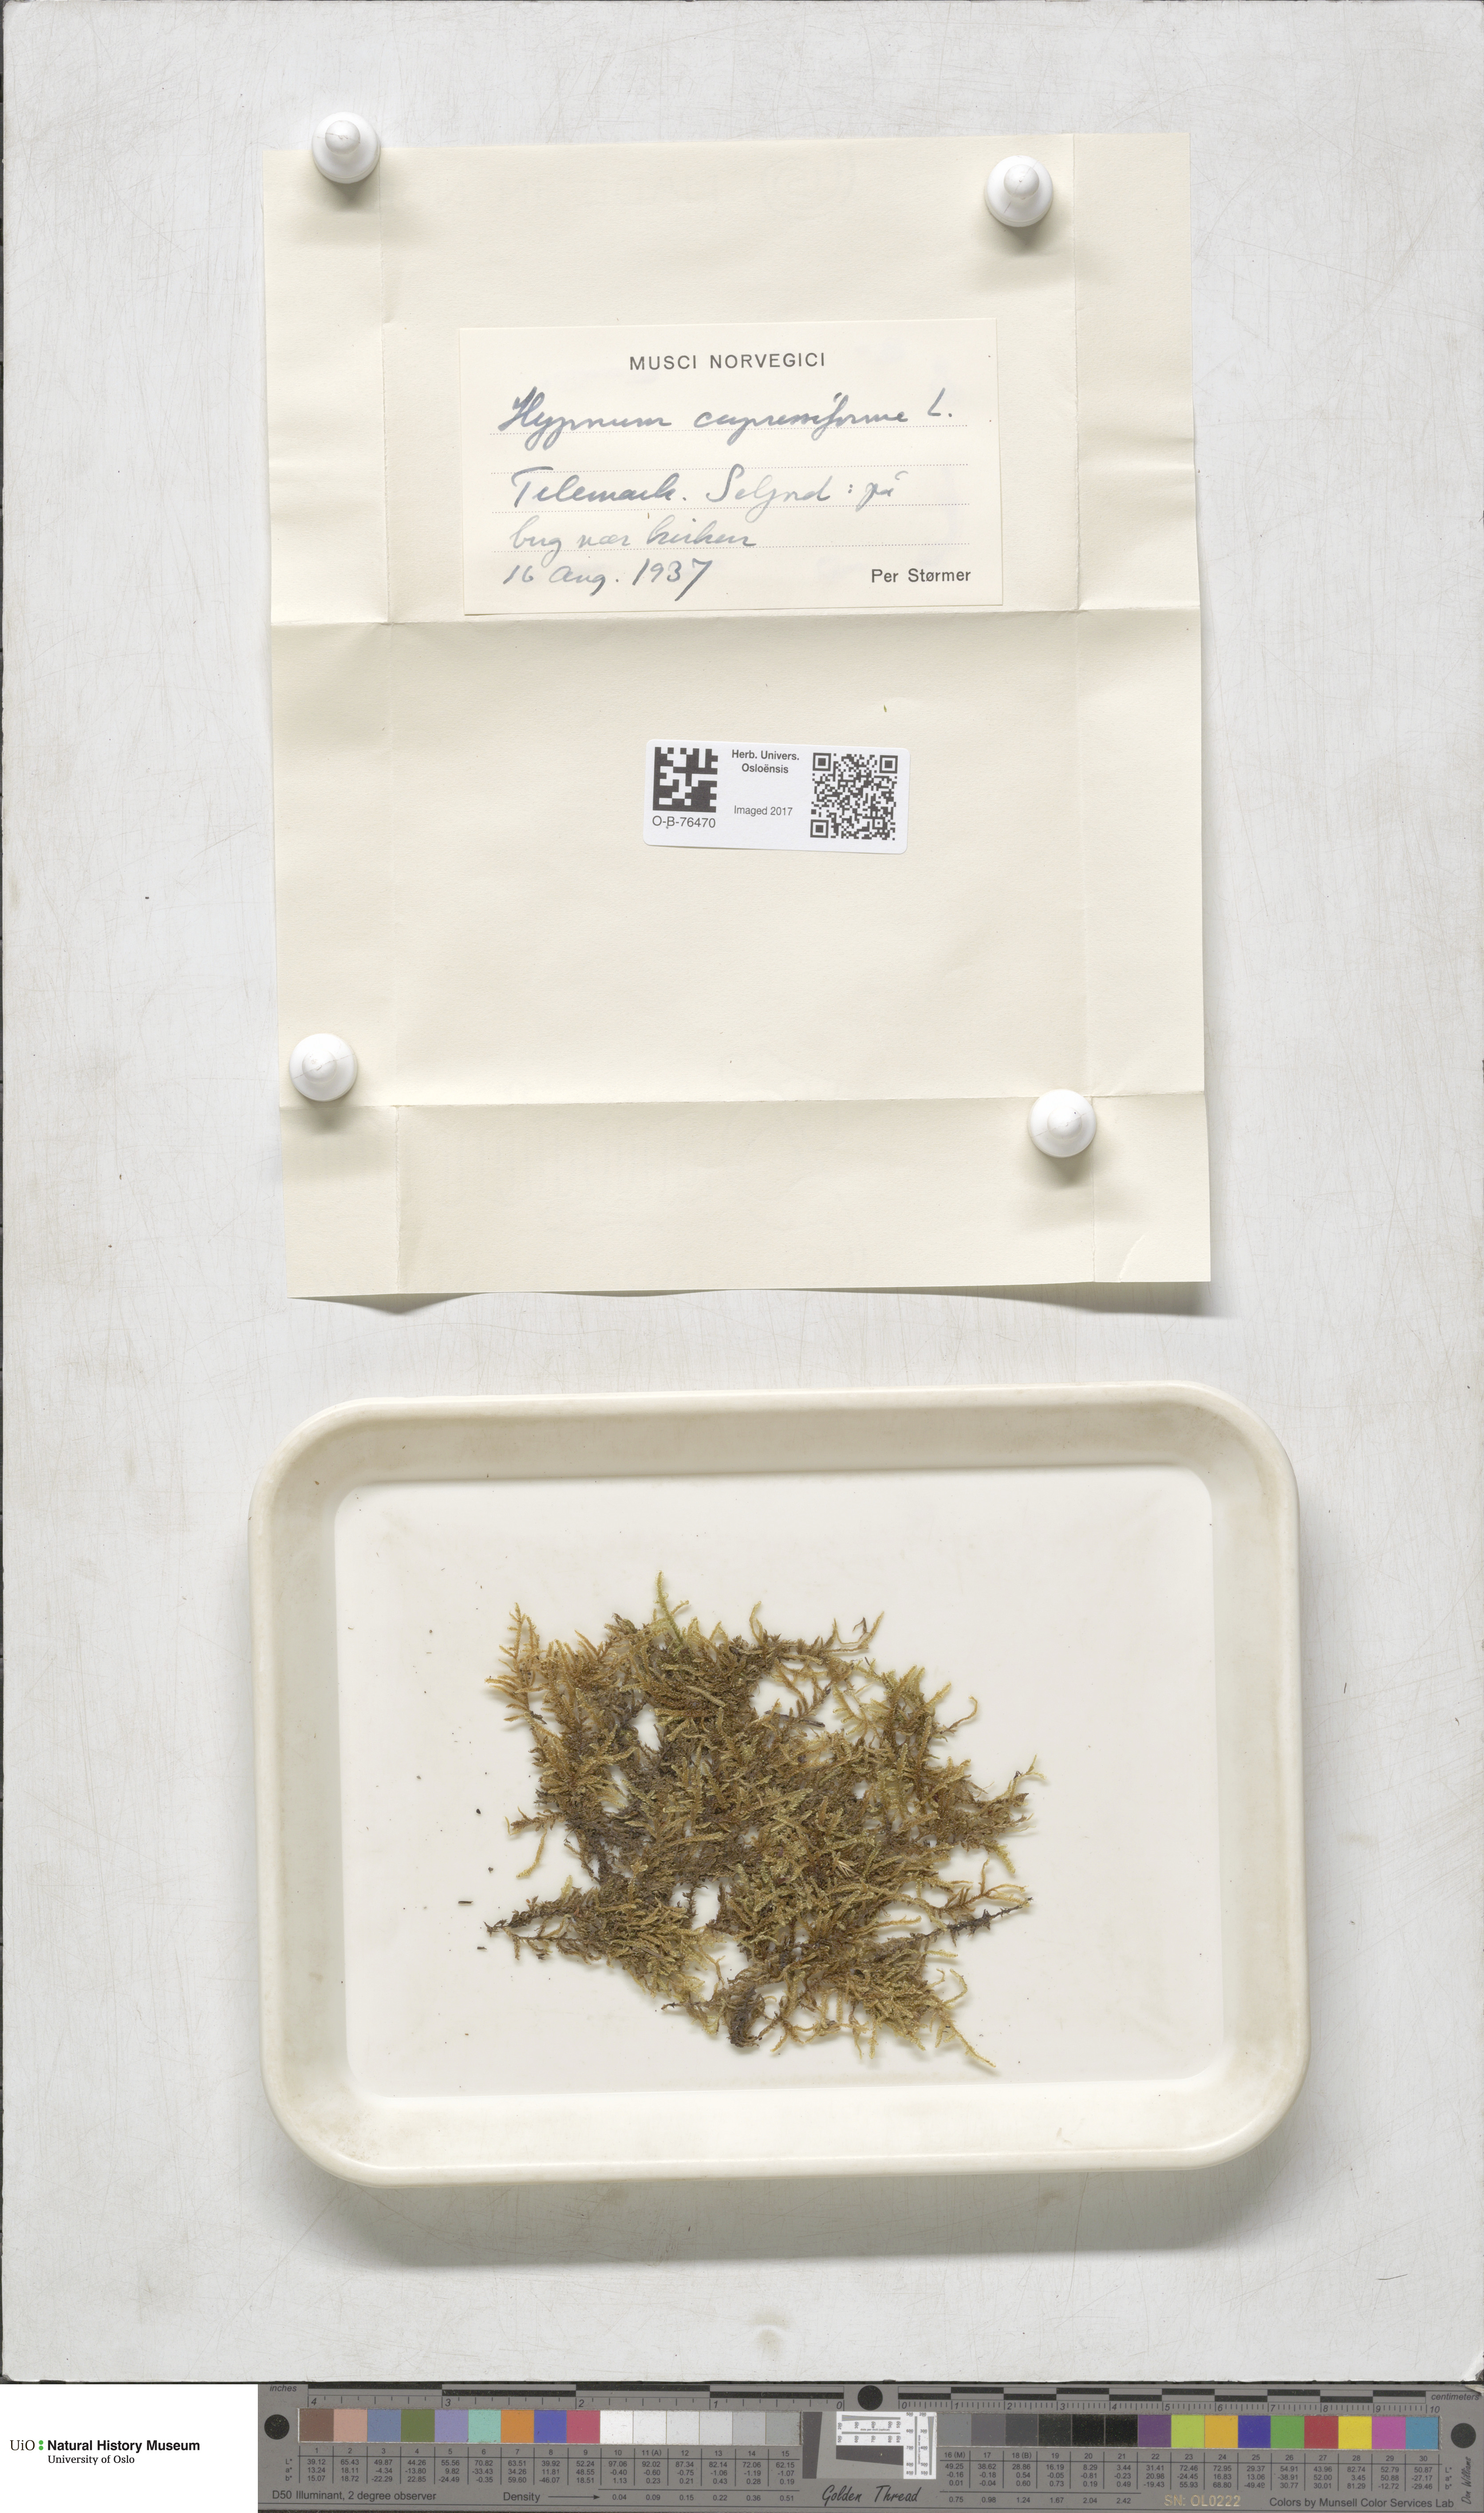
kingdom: Plantae
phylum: Bryophyta
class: Bryopsida
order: Hypnales
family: Hypnaceae
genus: Hypnum
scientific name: Hypnum cupressiforme
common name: Cypress-leaved plait-moss
